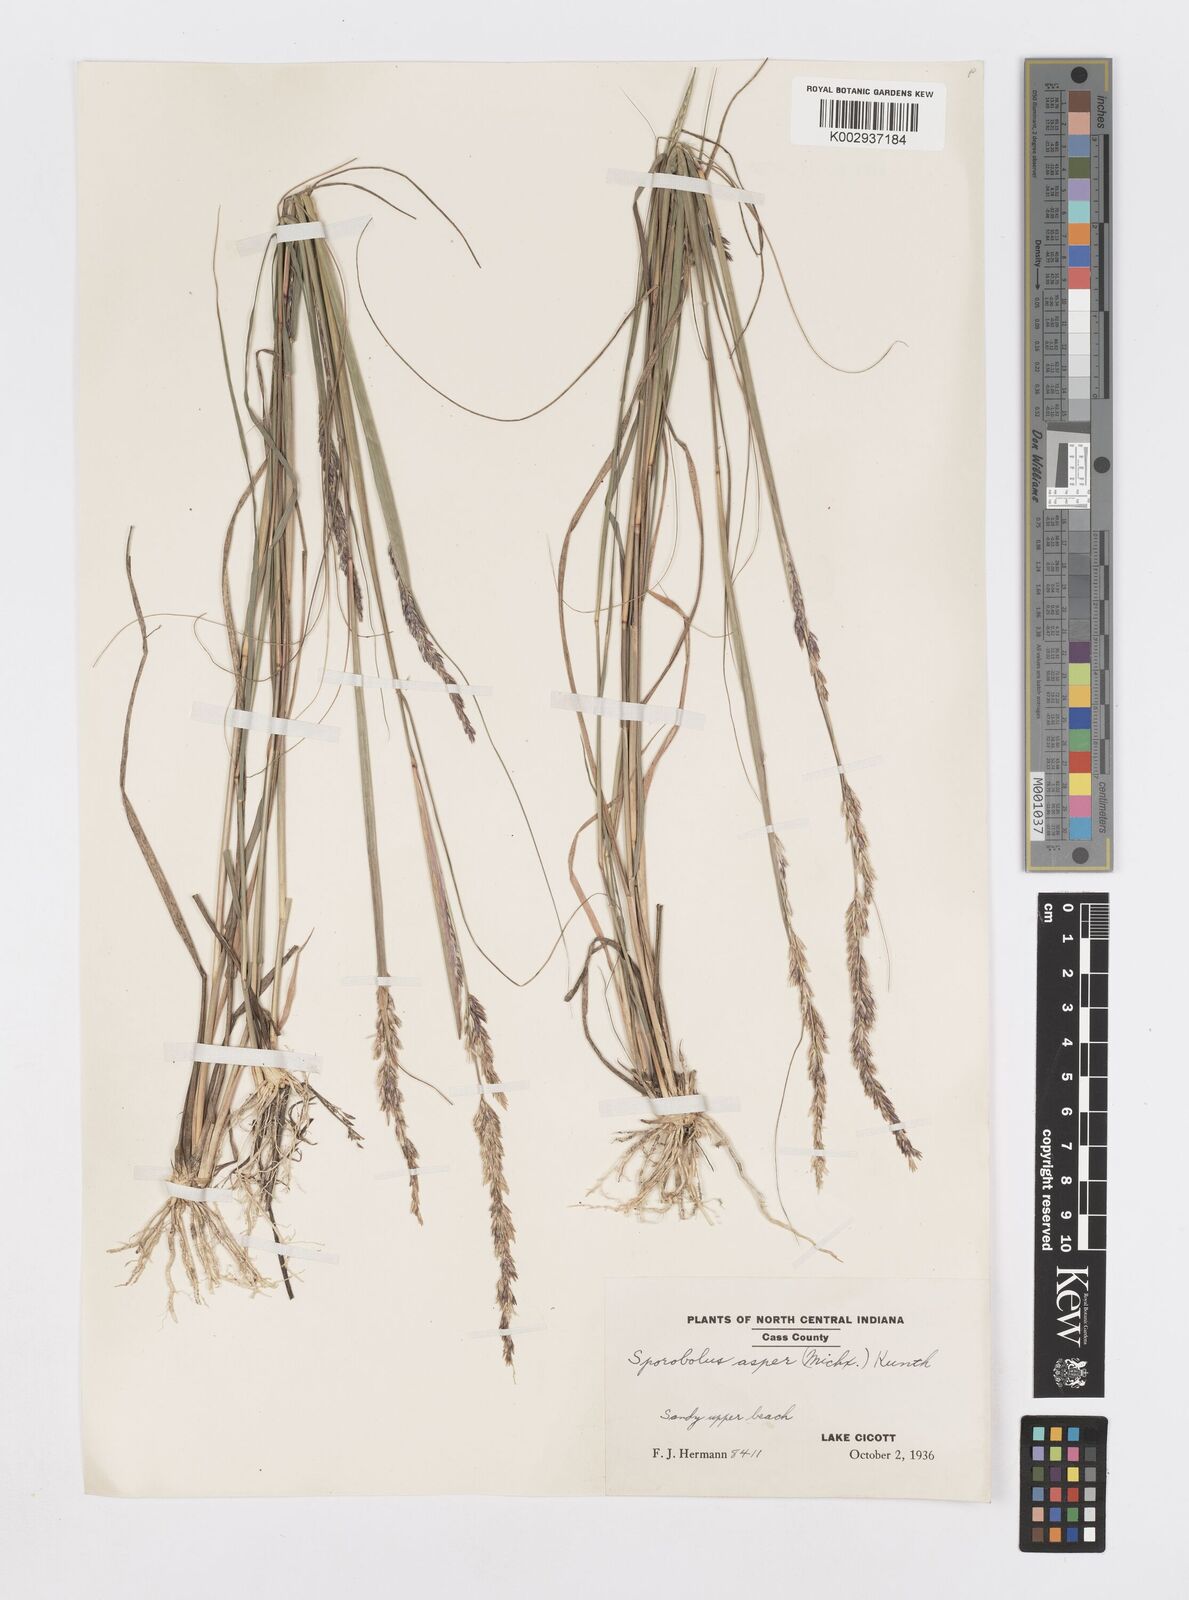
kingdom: Plantae
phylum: Tracheophyta
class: Liliopsida
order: Poales
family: Poaceae
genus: Sporobolus
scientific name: Sporobolus compositus
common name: Rough dropseed
